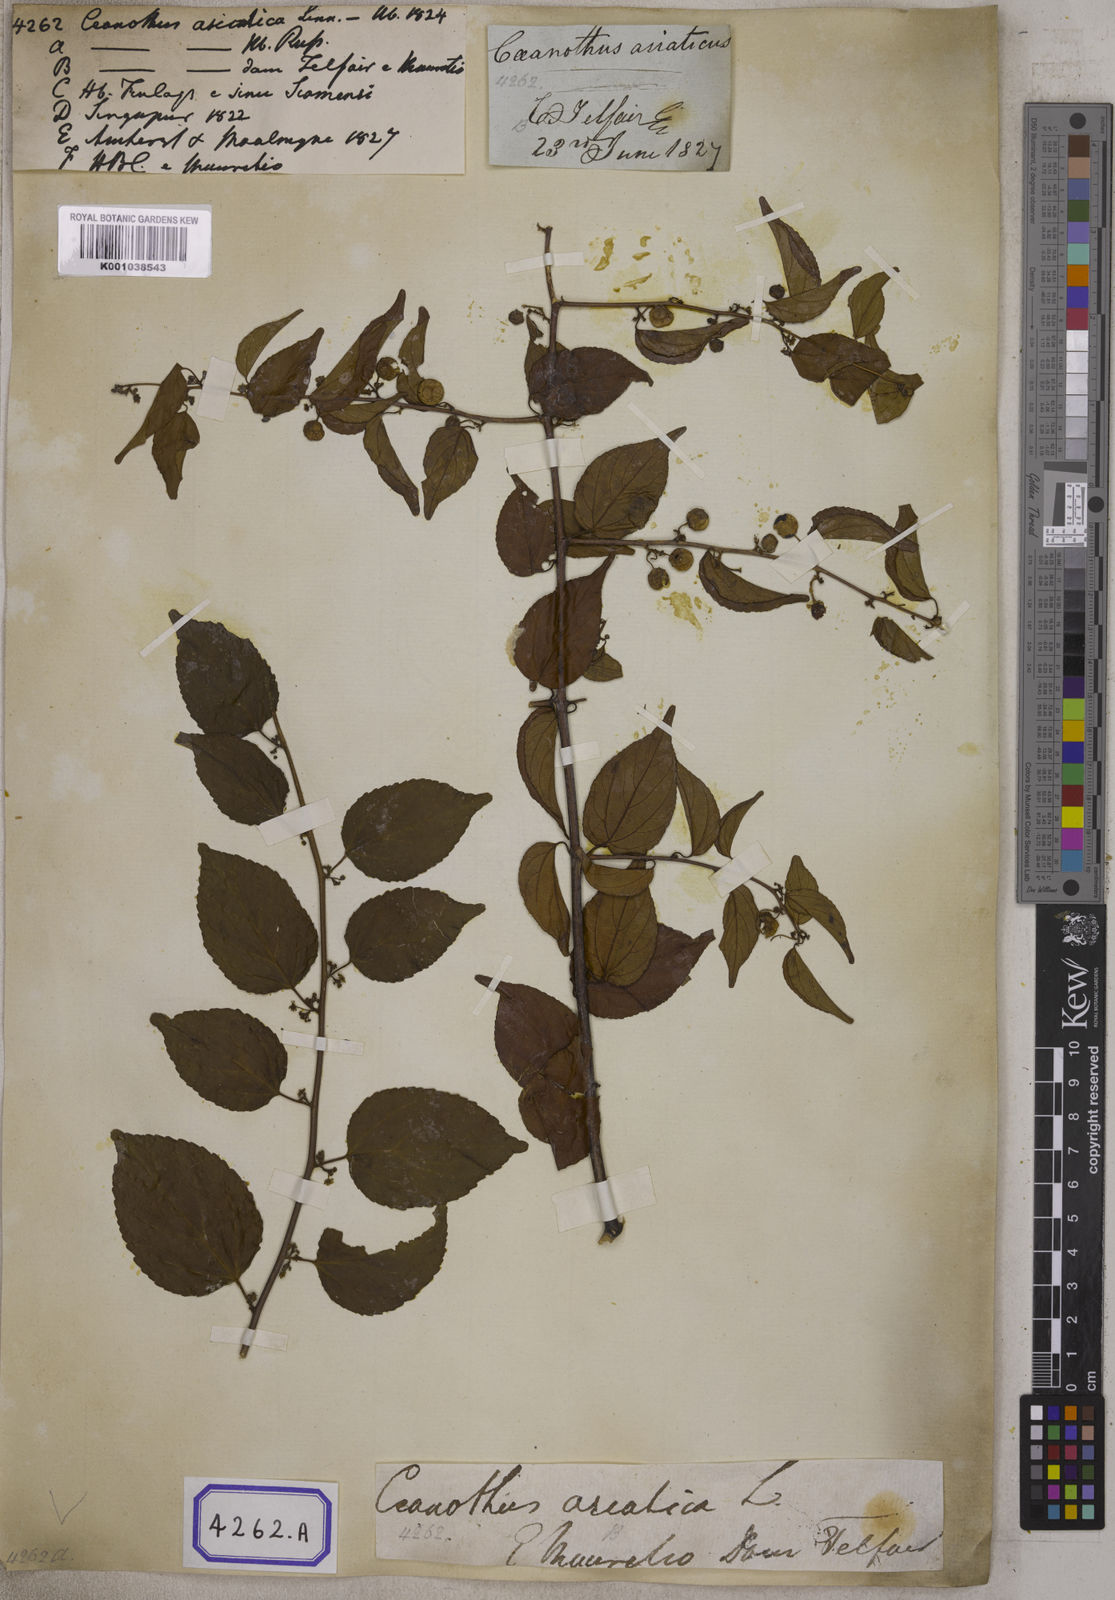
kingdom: Plantae
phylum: Tracheophyta
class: Magnoliopsida
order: Rosales
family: Rhamnaceae
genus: Colubrina
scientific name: Colubrina asiatica
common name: Asian nakedwood
